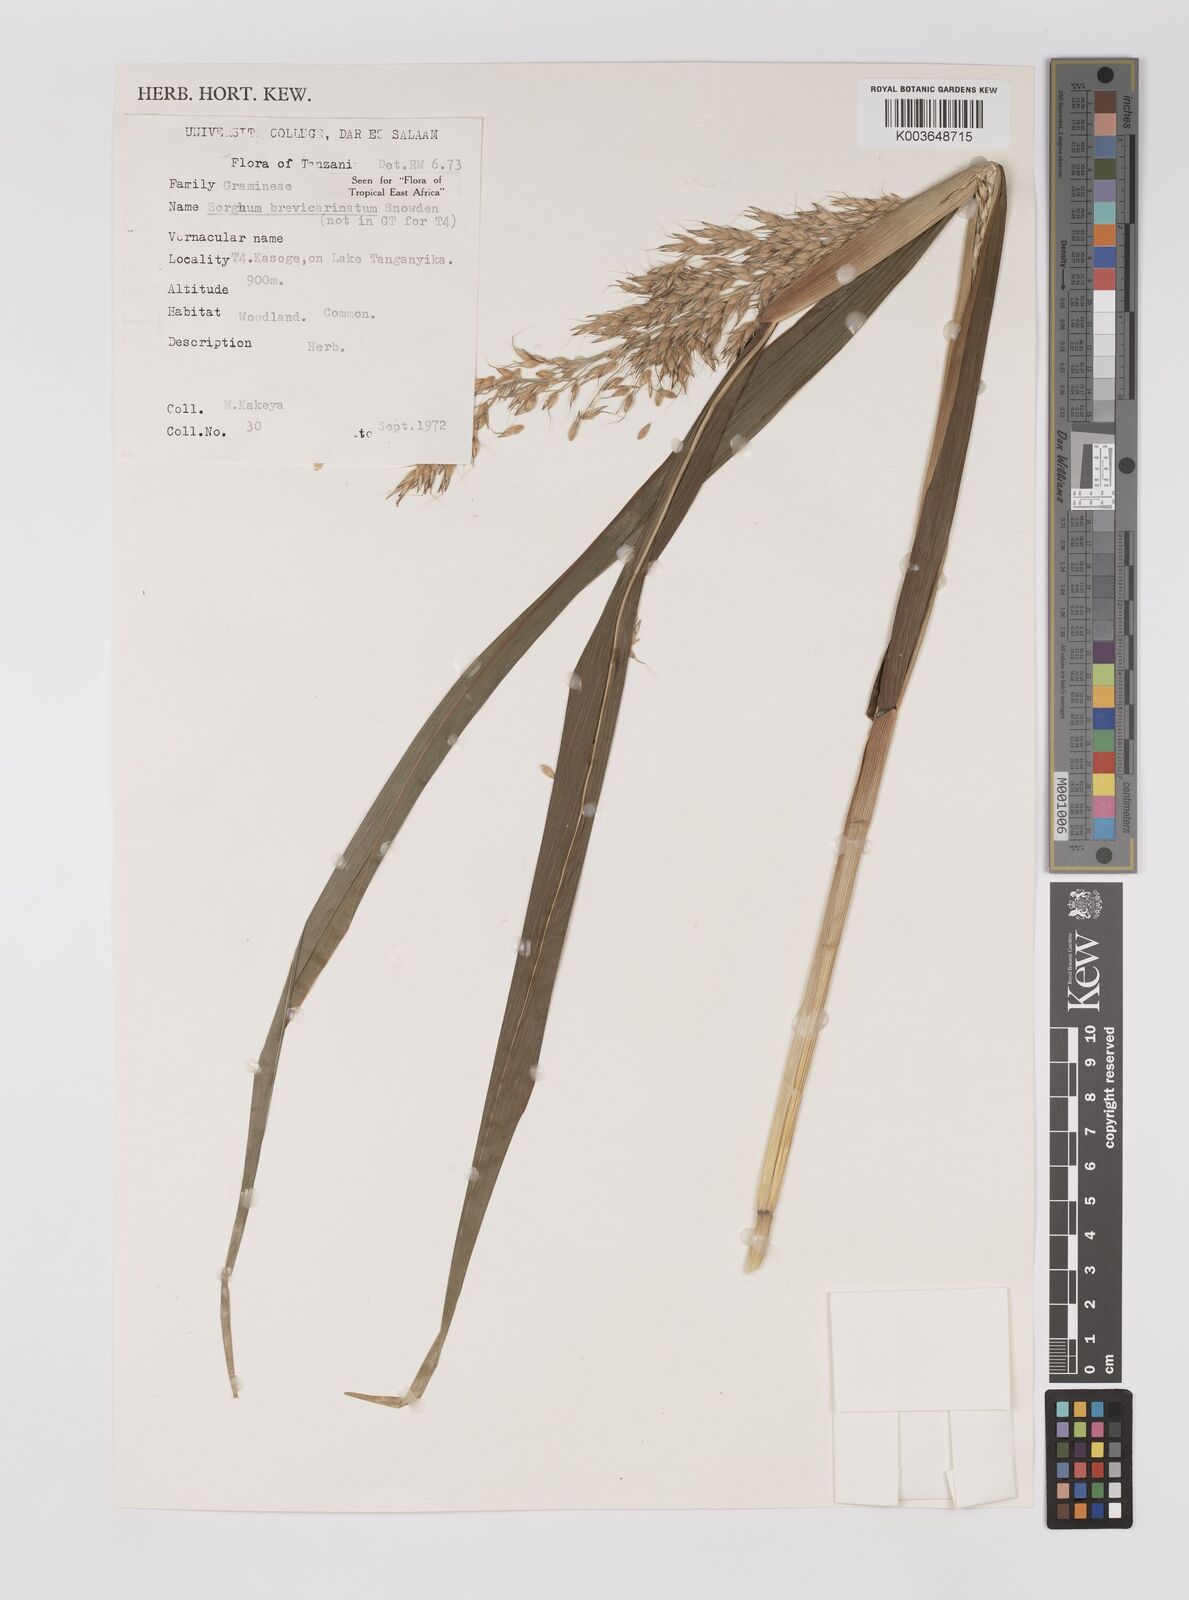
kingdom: Plantae
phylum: Tracheophyta
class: Liliopsida
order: Poales
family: Poaceae
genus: Sorghum
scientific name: Sorghum arundinaceum
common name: Sorghum
